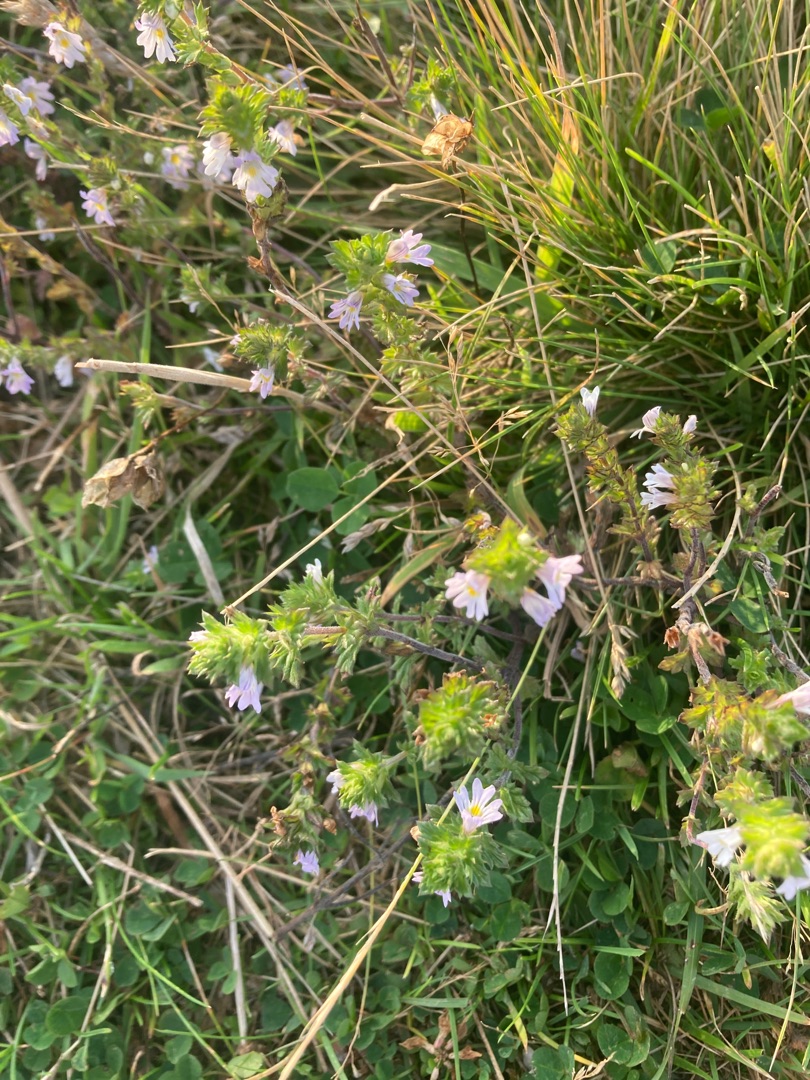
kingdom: Plantae
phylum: Tracheophyta
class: Magnoliopsida
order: Lamiales
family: Orobanchaceae
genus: Euphrasia
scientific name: Euphrasia
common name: Øjentrøstslægten
